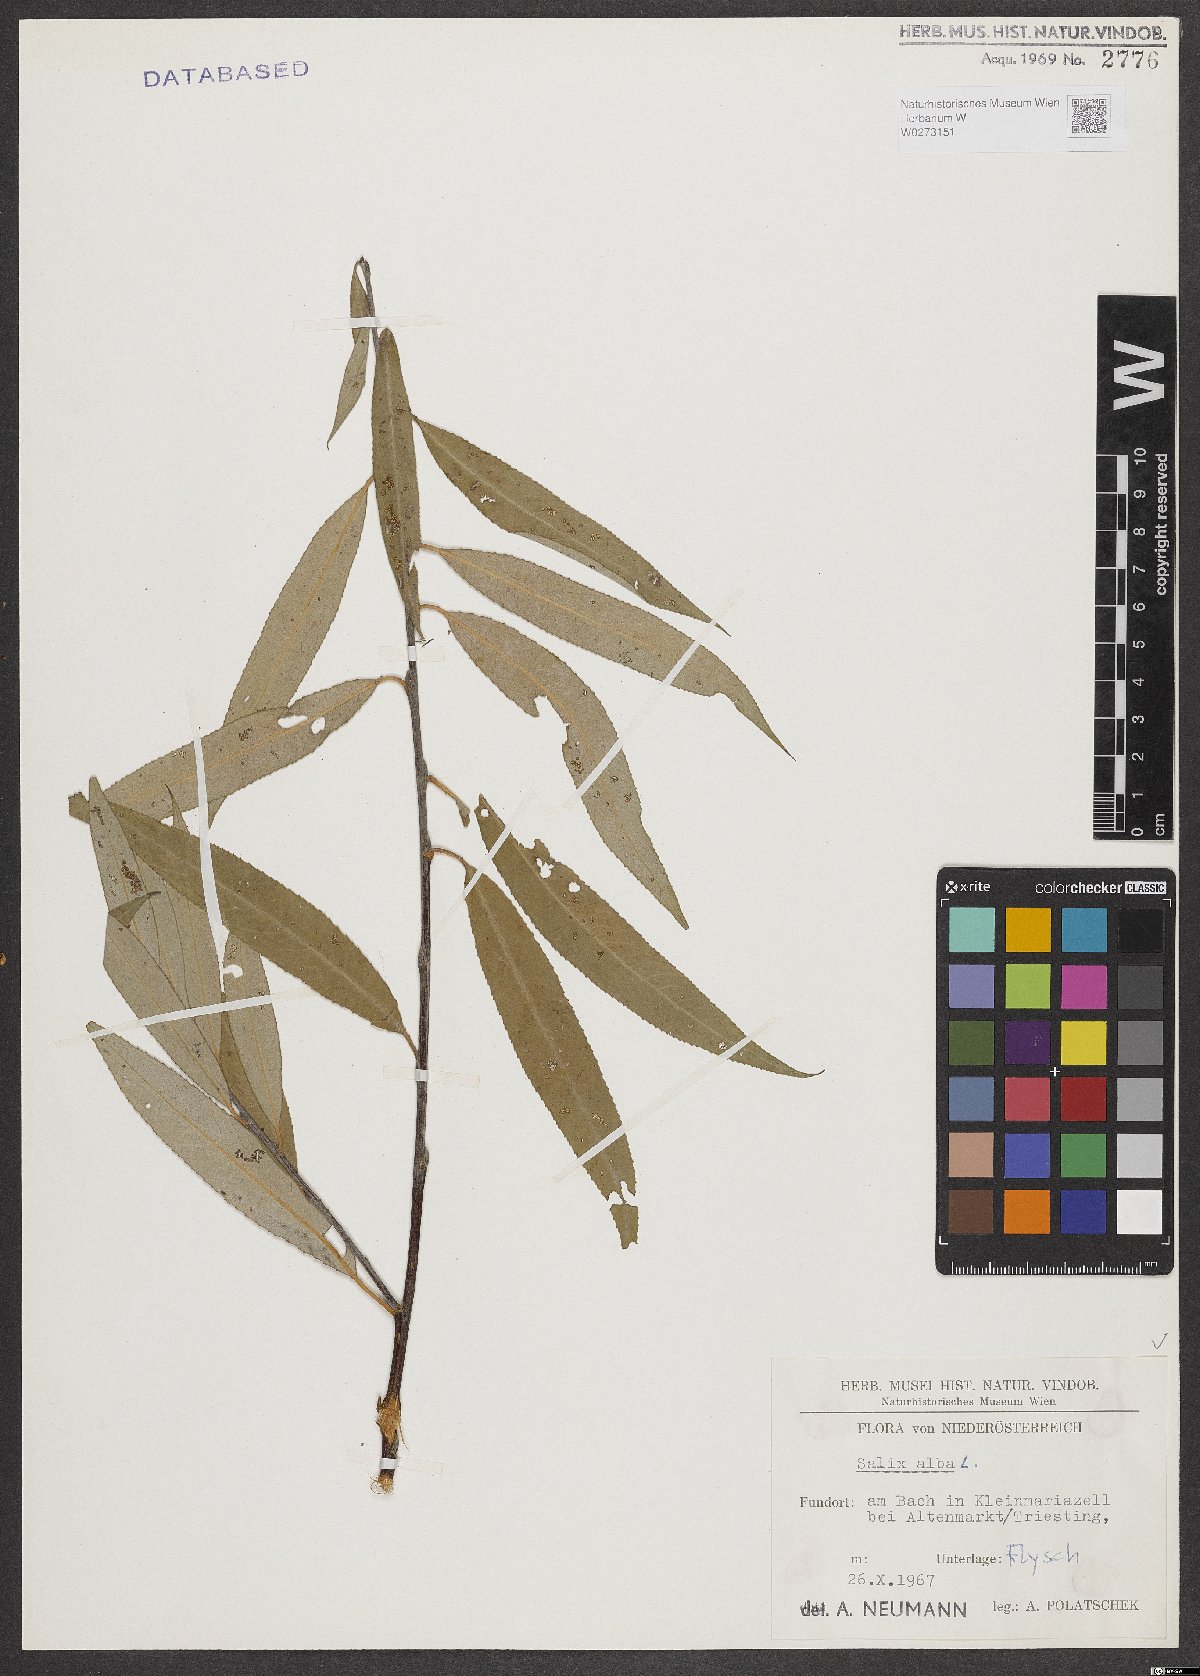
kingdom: Plantae
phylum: Tracheophyta
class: Magnoliopsida
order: Malpighiales
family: Salicaceae
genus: Salix
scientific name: Salix alba
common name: White willow
